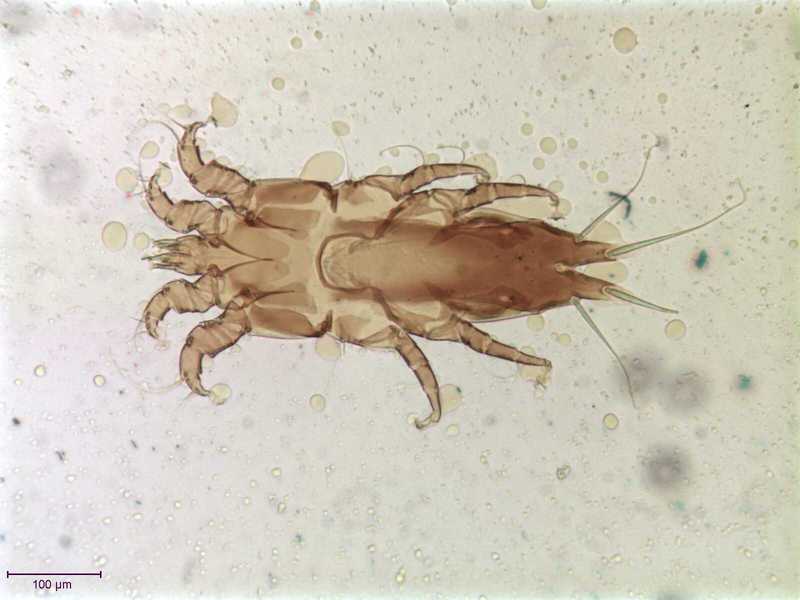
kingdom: Animalia
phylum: Arthropoda
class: Arachnida
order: Sarcoptiformes
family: Alloptidae
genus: Brephosceles
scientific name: Brephosceles pelagicus
